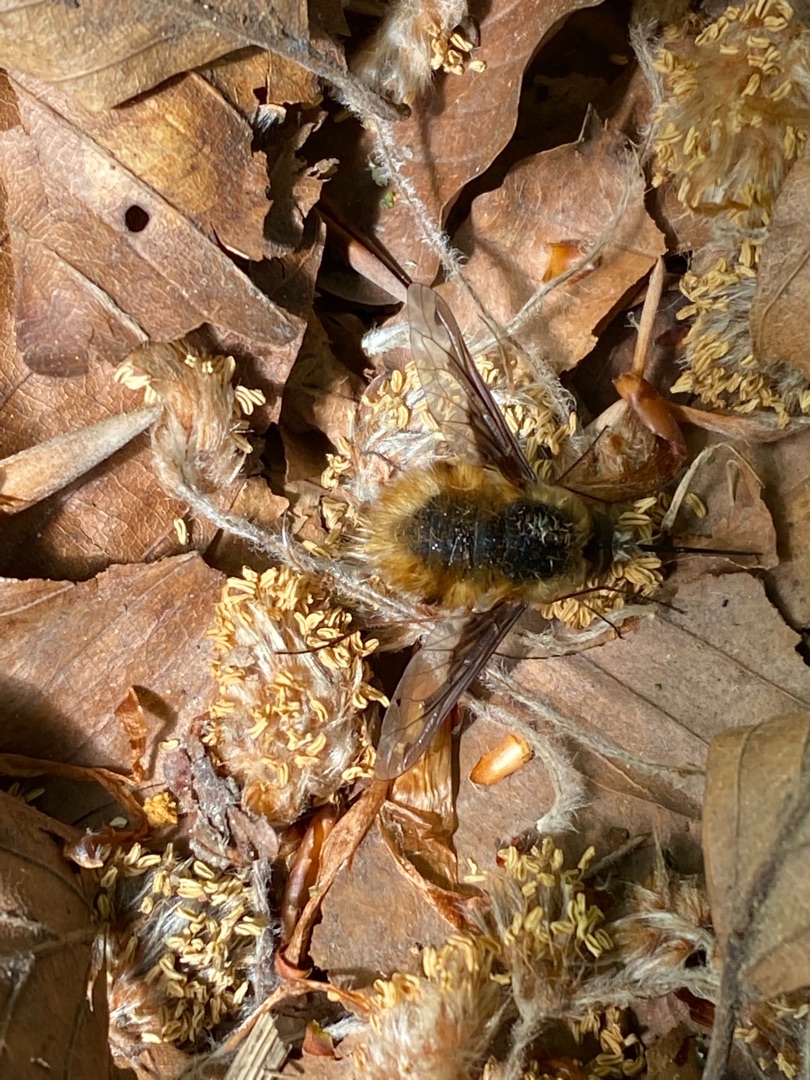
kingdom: Animalia
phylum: Arthropoda
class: Insecta
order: Diptera
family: Bombyliidae
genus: Bombylius
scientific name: Bombylius major
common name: Stor humleflue
